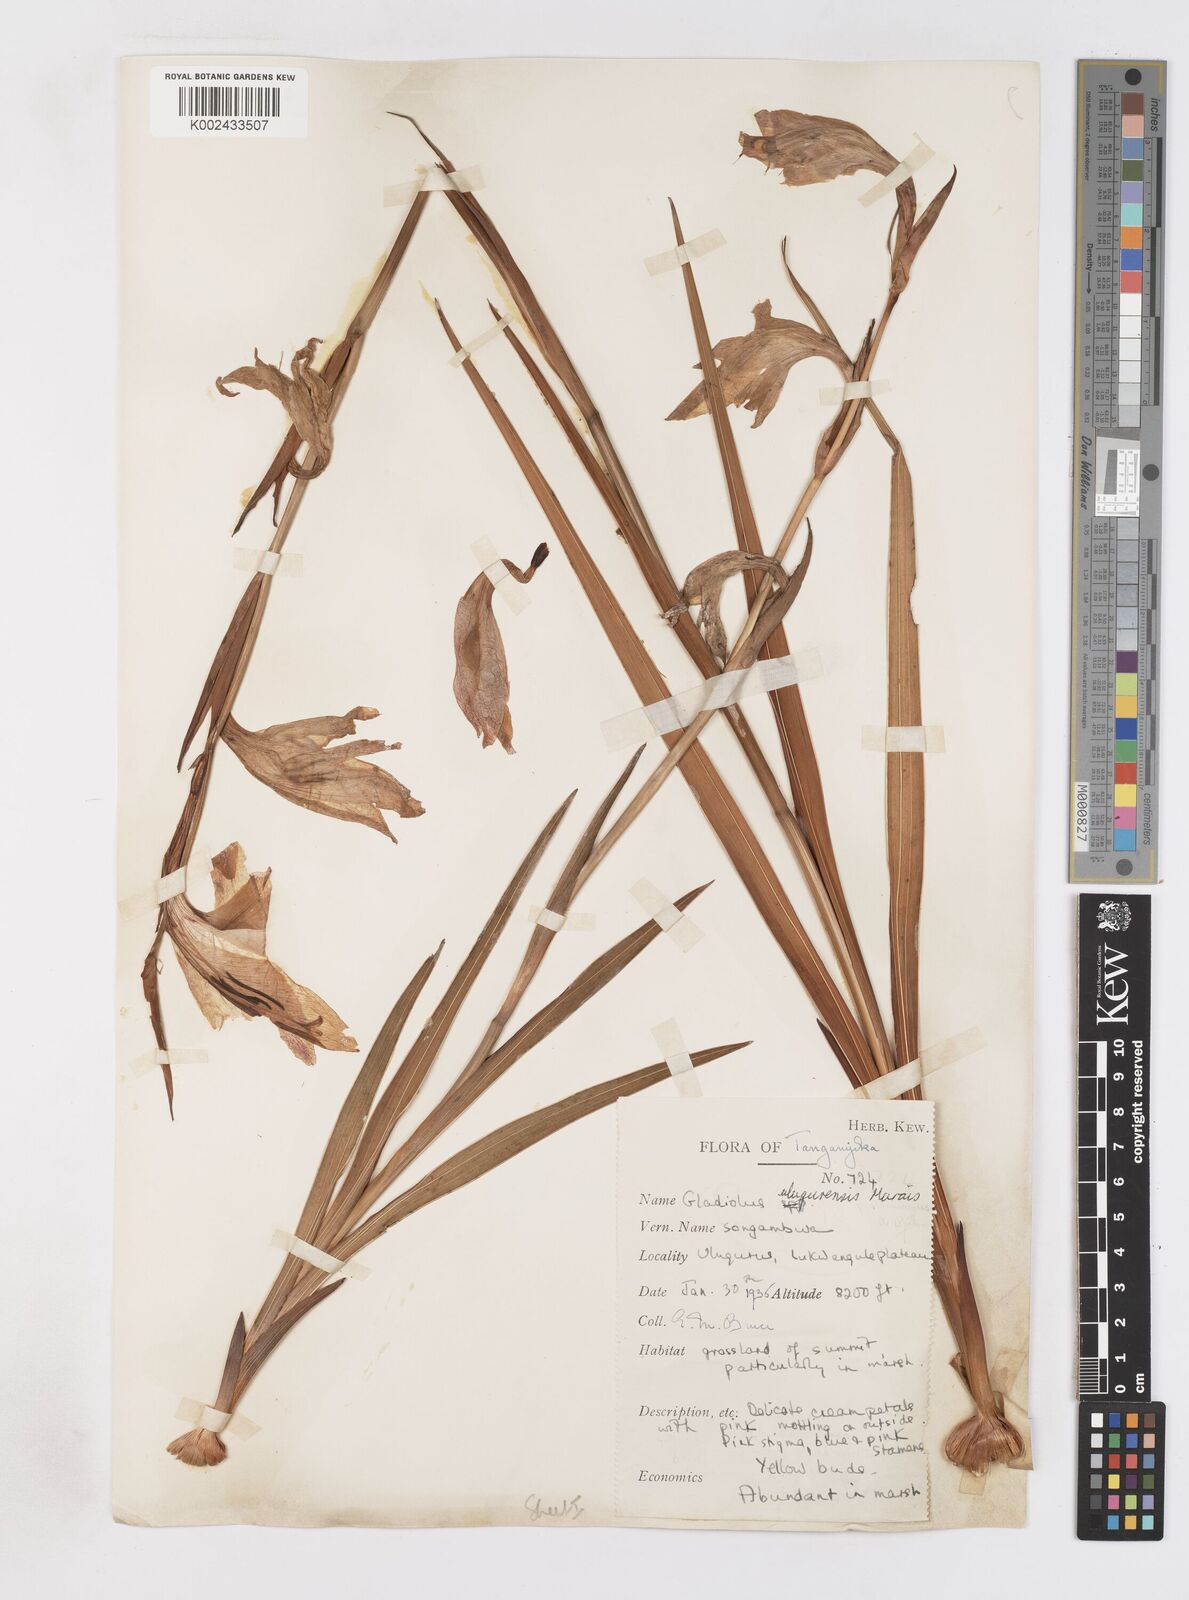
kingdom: Plantae
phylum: Tracheophyta
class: Liliopsida
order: Asparagales
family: Iridaceae
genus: Gladiolus
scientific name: Gladiolus dalenii
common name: Cornflag
